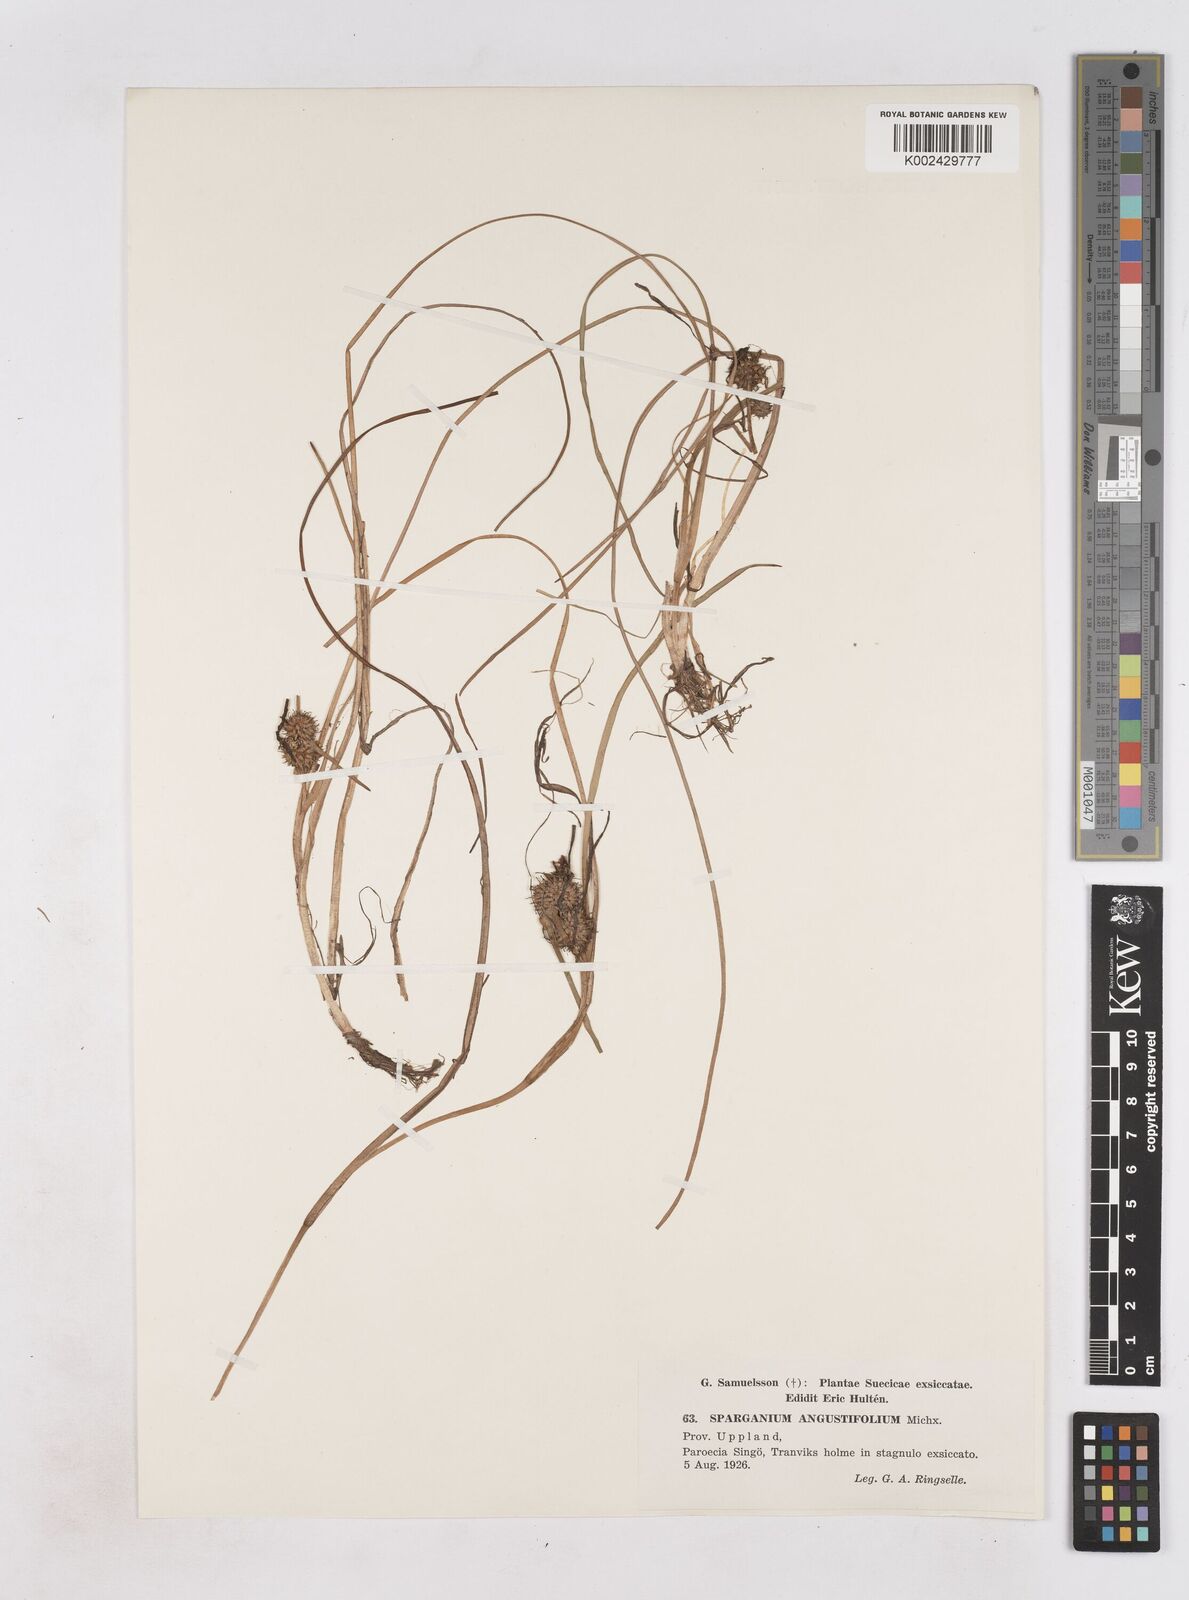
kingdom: Plantae
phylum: Tracheophyta
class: Liliopsida
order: Poales
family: Typhaceae
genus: Sparganium
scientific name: Sparganium angustifolium
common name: Floating bur-reed
